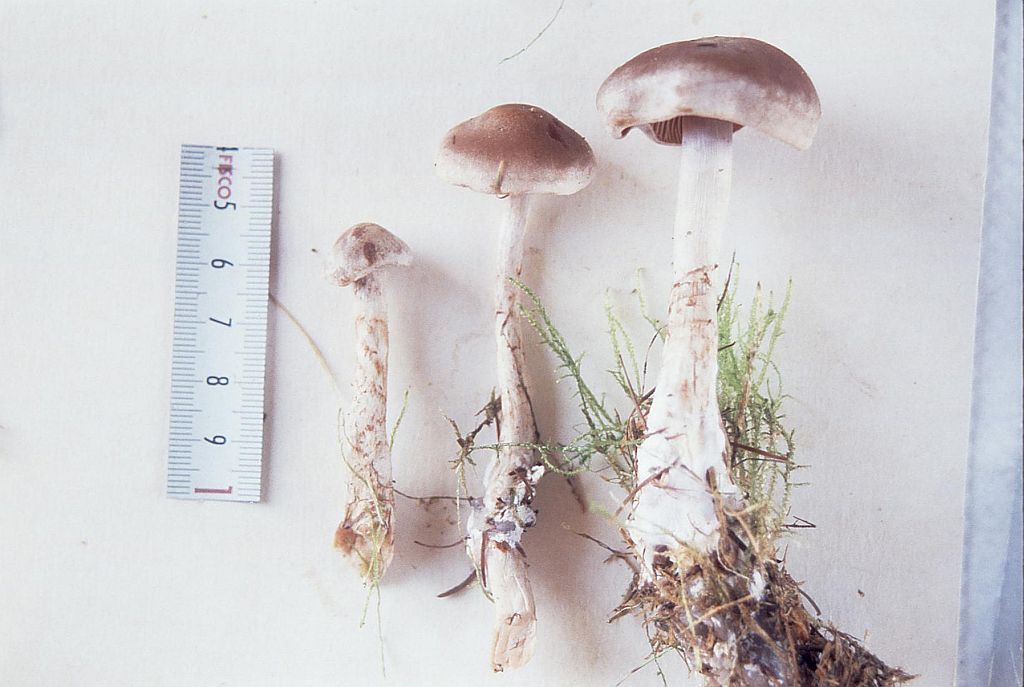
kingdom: Fungi
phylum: Basidiomycota
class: Agaricomycetes
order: Agaricales
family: Cortinariaceae
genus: Cortinarius
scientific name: Cortinarius spilomeus
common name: rødfnugget slørhat
